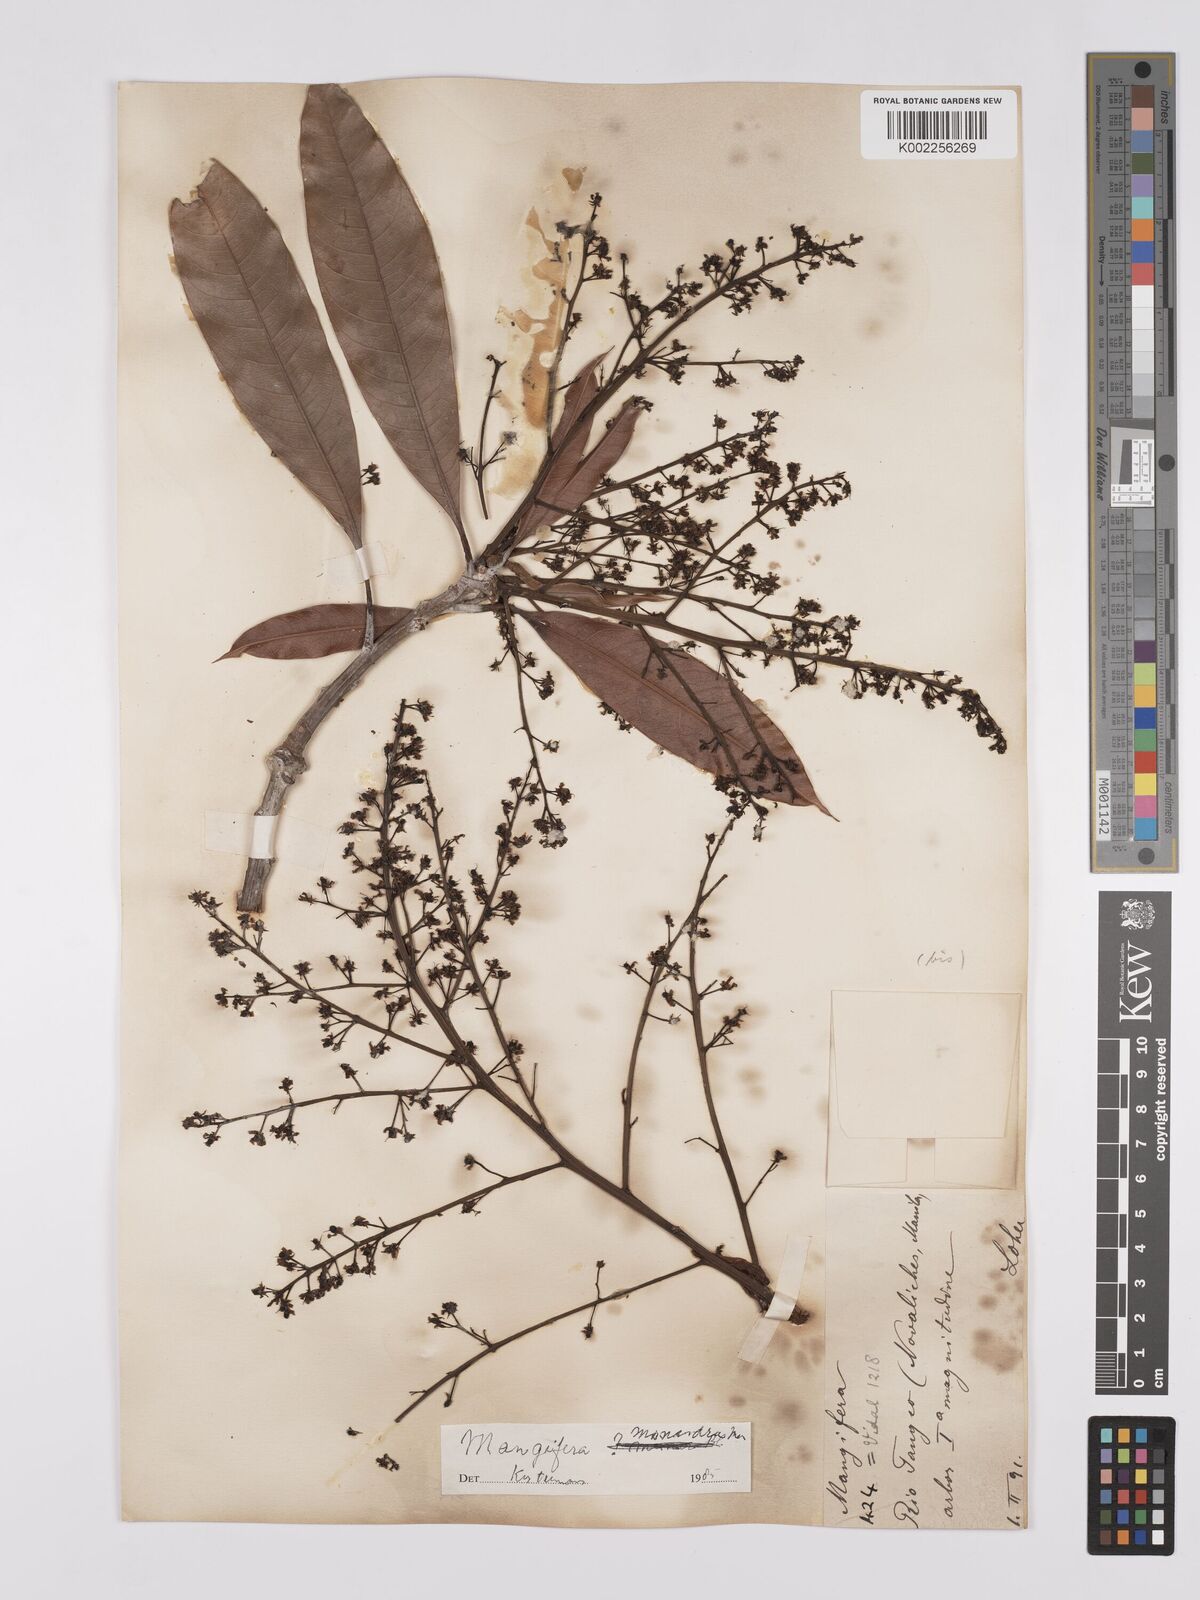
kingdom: Plantae
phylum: Tracheophyta
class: Magnoliopsida
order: Sapindales
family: Anacardiaceae
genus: Mangifera
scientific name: Mangifera monandra
